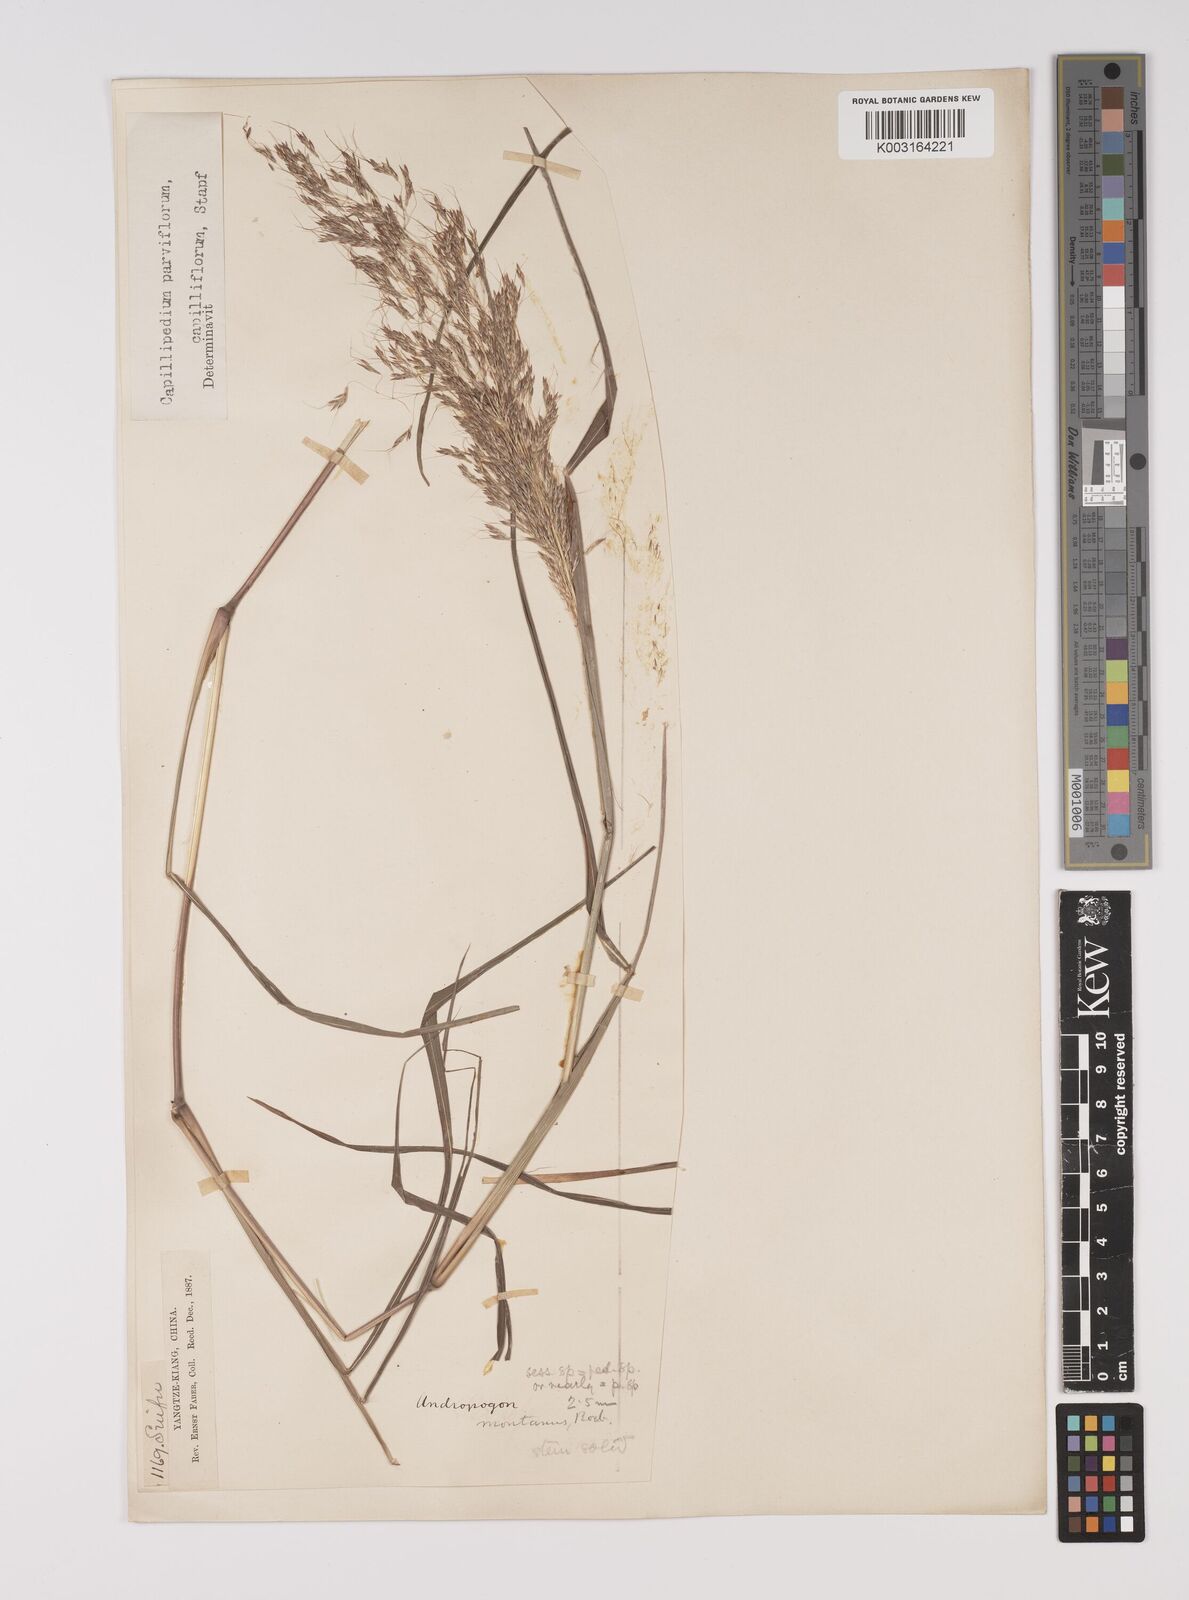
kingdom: Plantae
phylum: Tracheophyta
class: Liliopsida
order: Poales
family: Poaceae
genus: Capillipedium
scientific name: Capillipedium parviflorum
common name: Golden-beard
